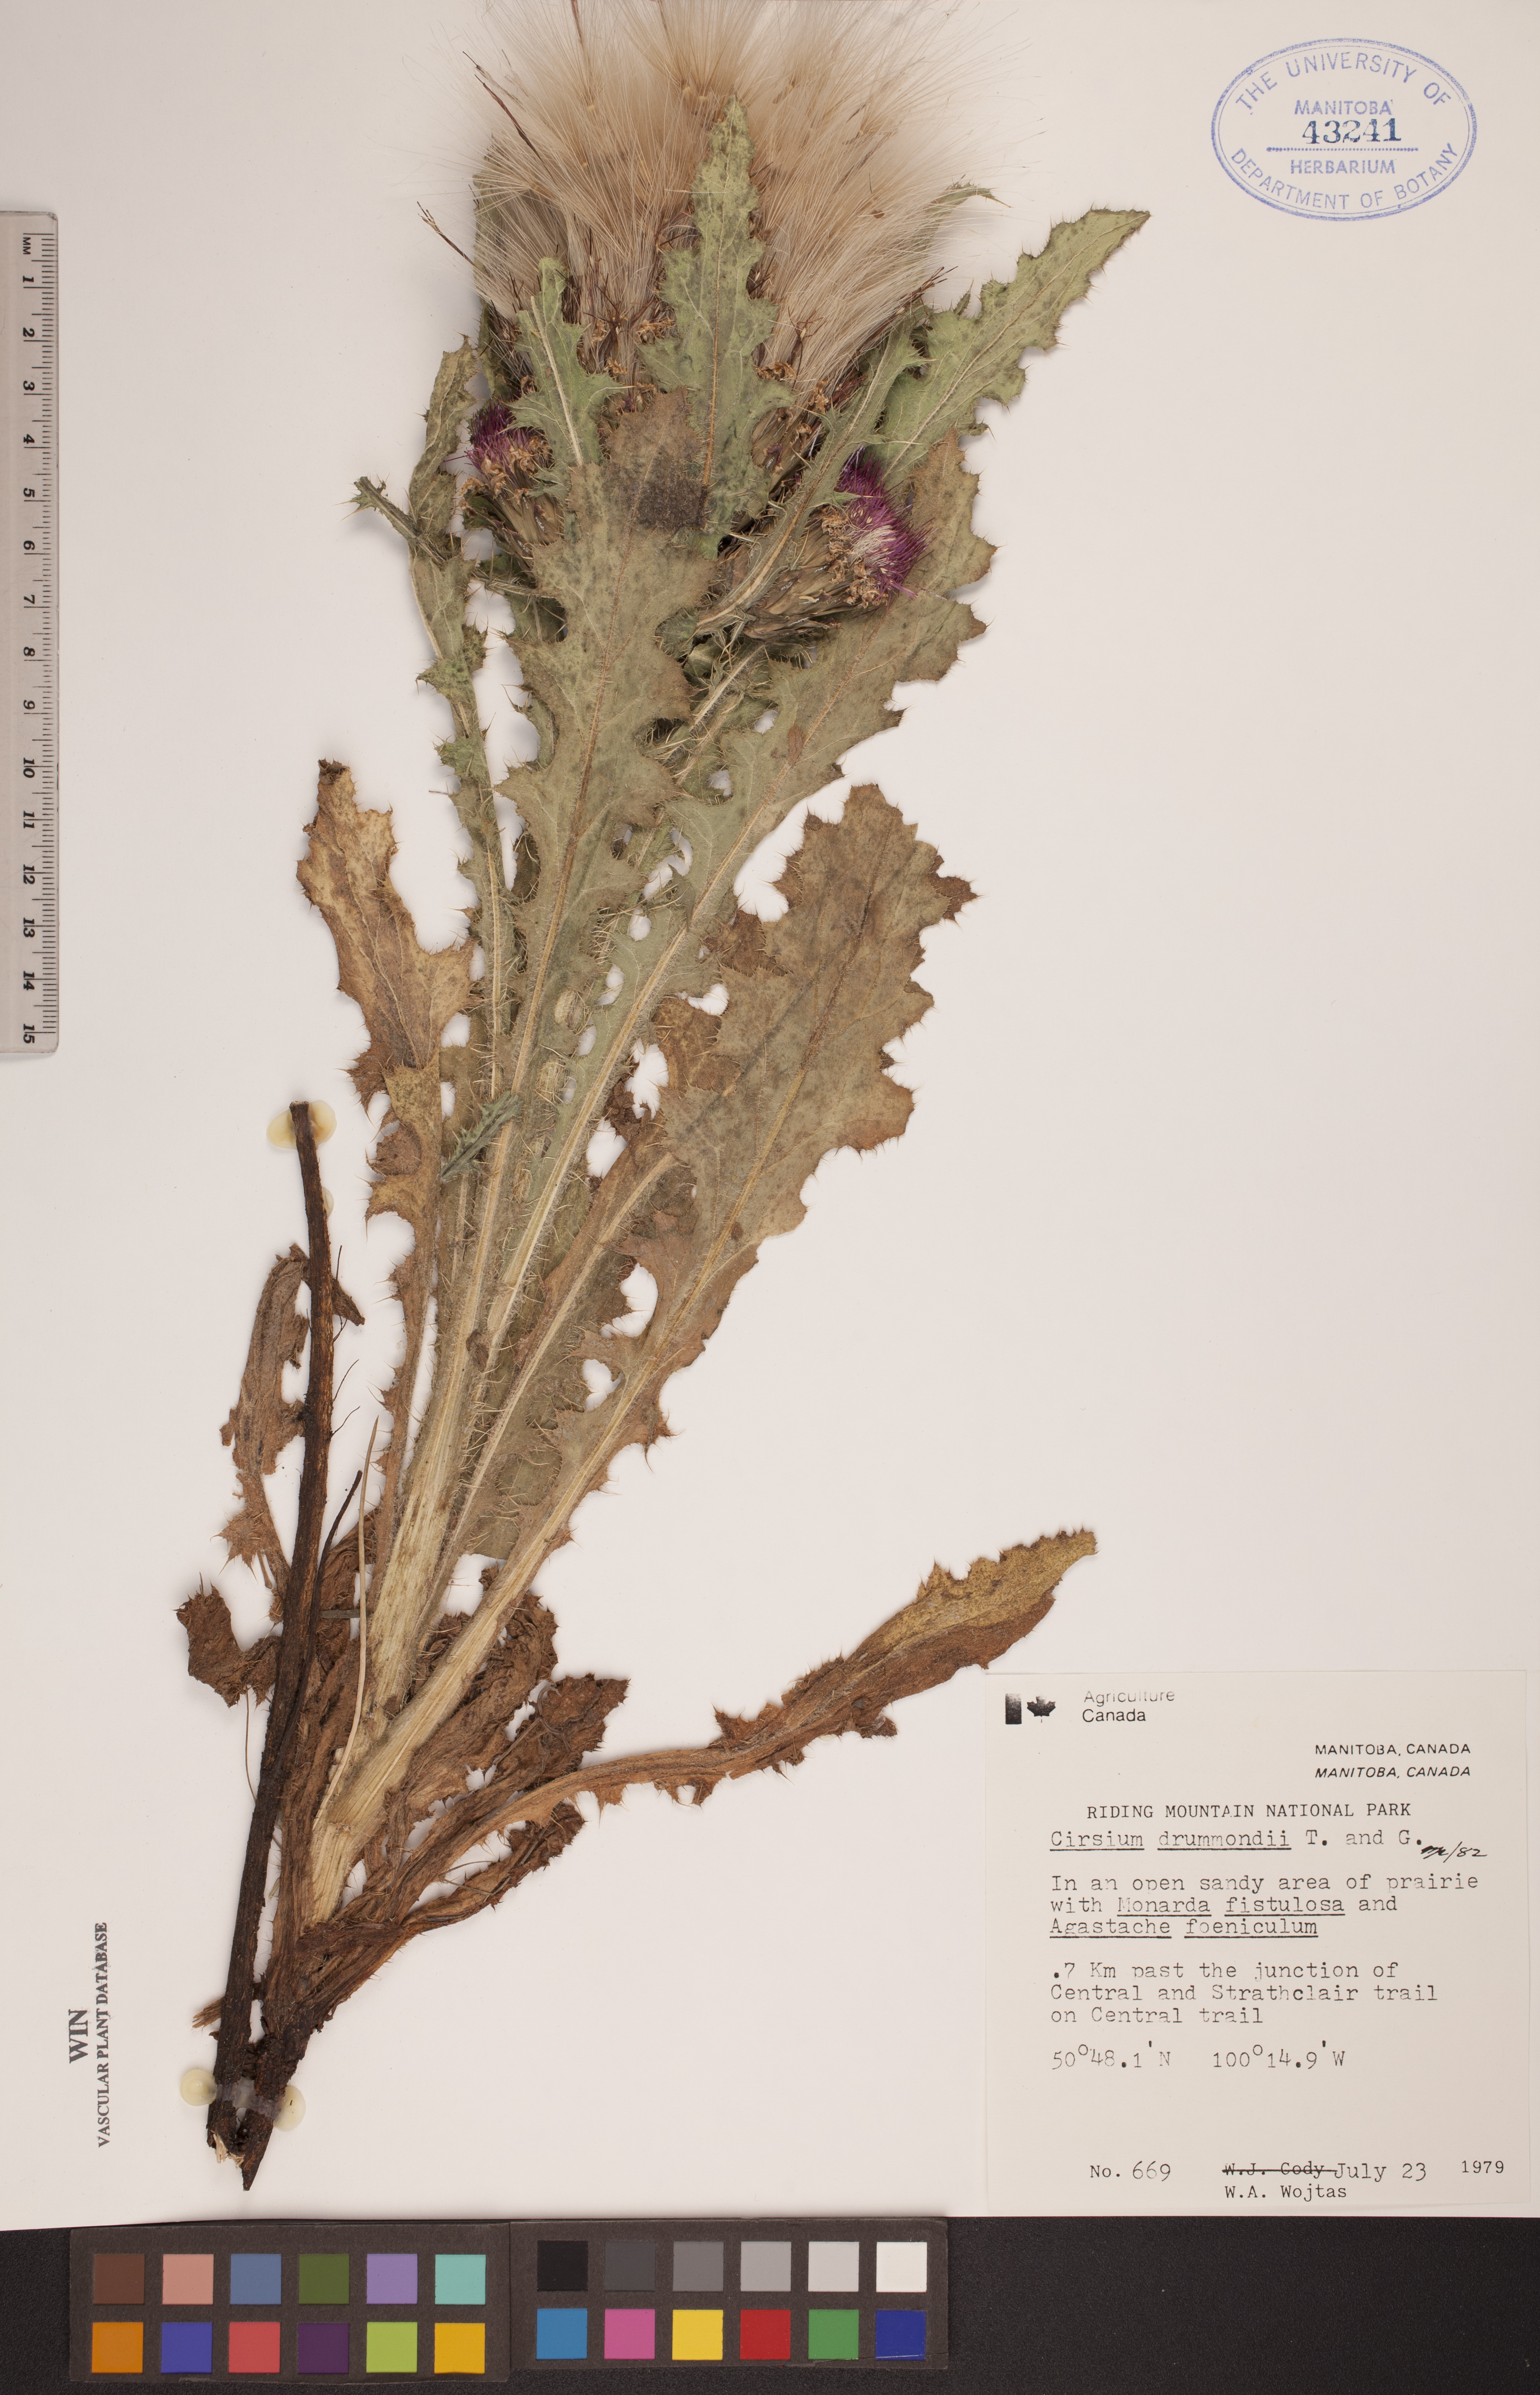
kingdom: Plantae
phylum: Tracheophyta
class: Magnoliopsida
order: Asterales
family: Asteraceae
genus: Cirsium
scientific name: Cirsium drummondii
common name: Drummond's thistle
